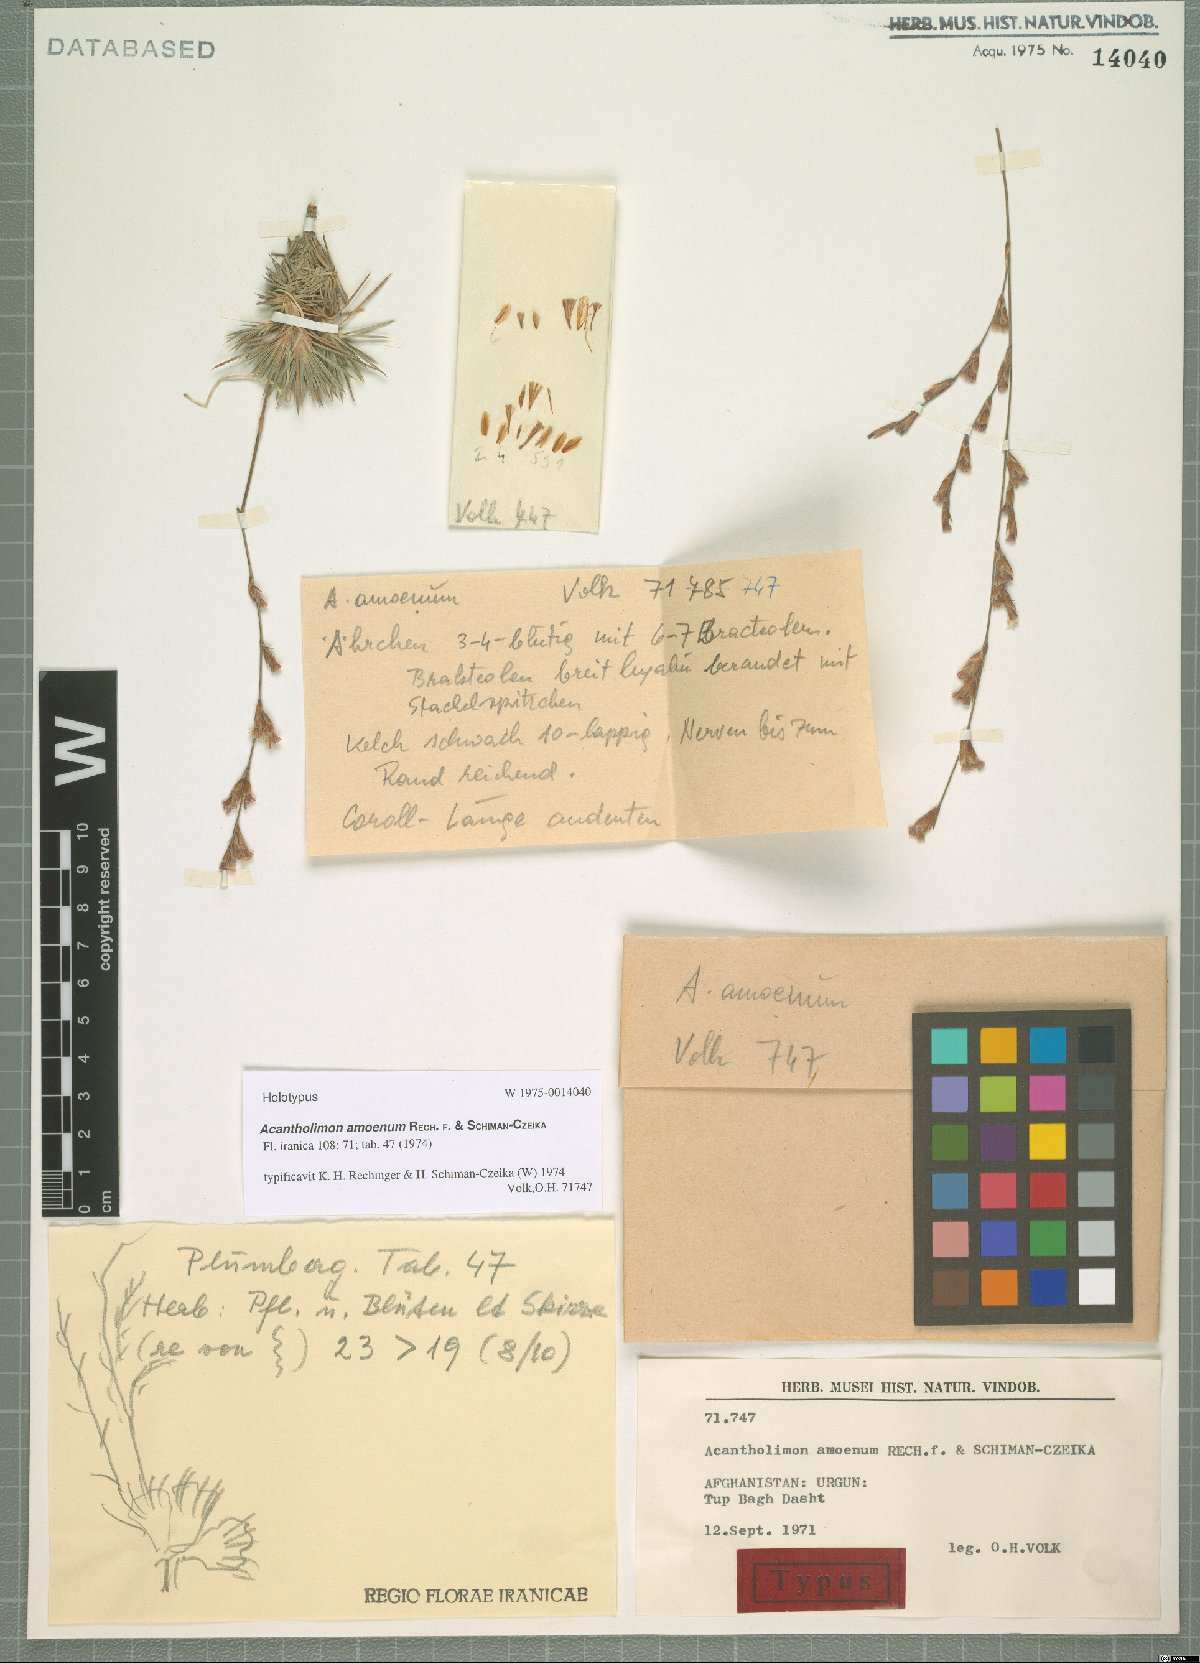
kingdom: Plantae
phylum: Tracheophyta
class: Magnoliopsida
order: Caryophyllales
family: Plumbaginaceae
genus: Acantholimon
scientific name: Acantholimon amoenum
